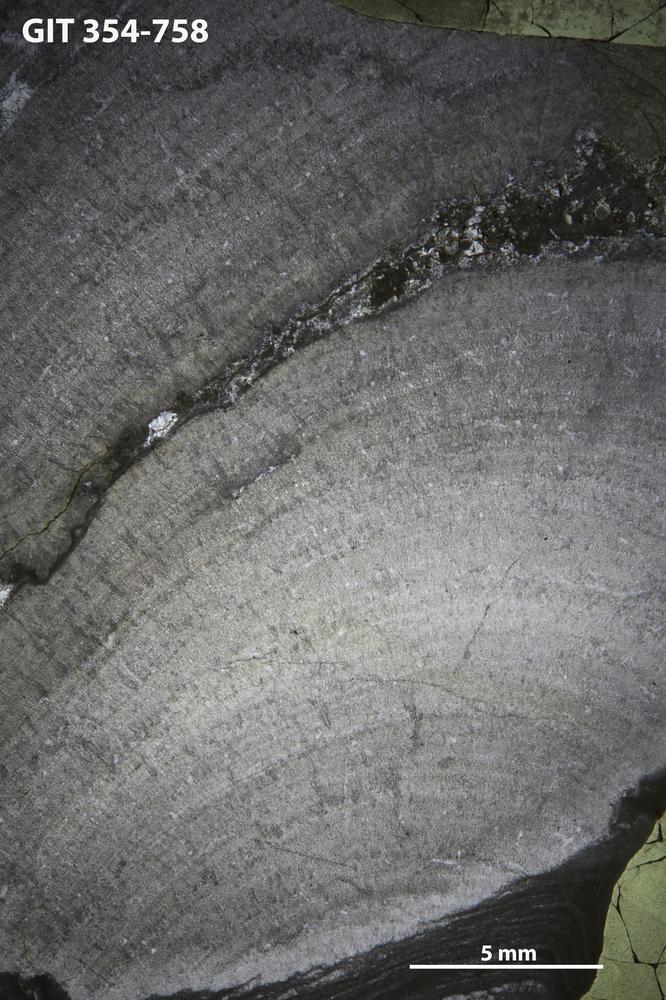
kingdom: Animalia
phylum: Porifera
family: Densastromatidae
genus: Araneosustroma
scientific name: Araneosustroma
